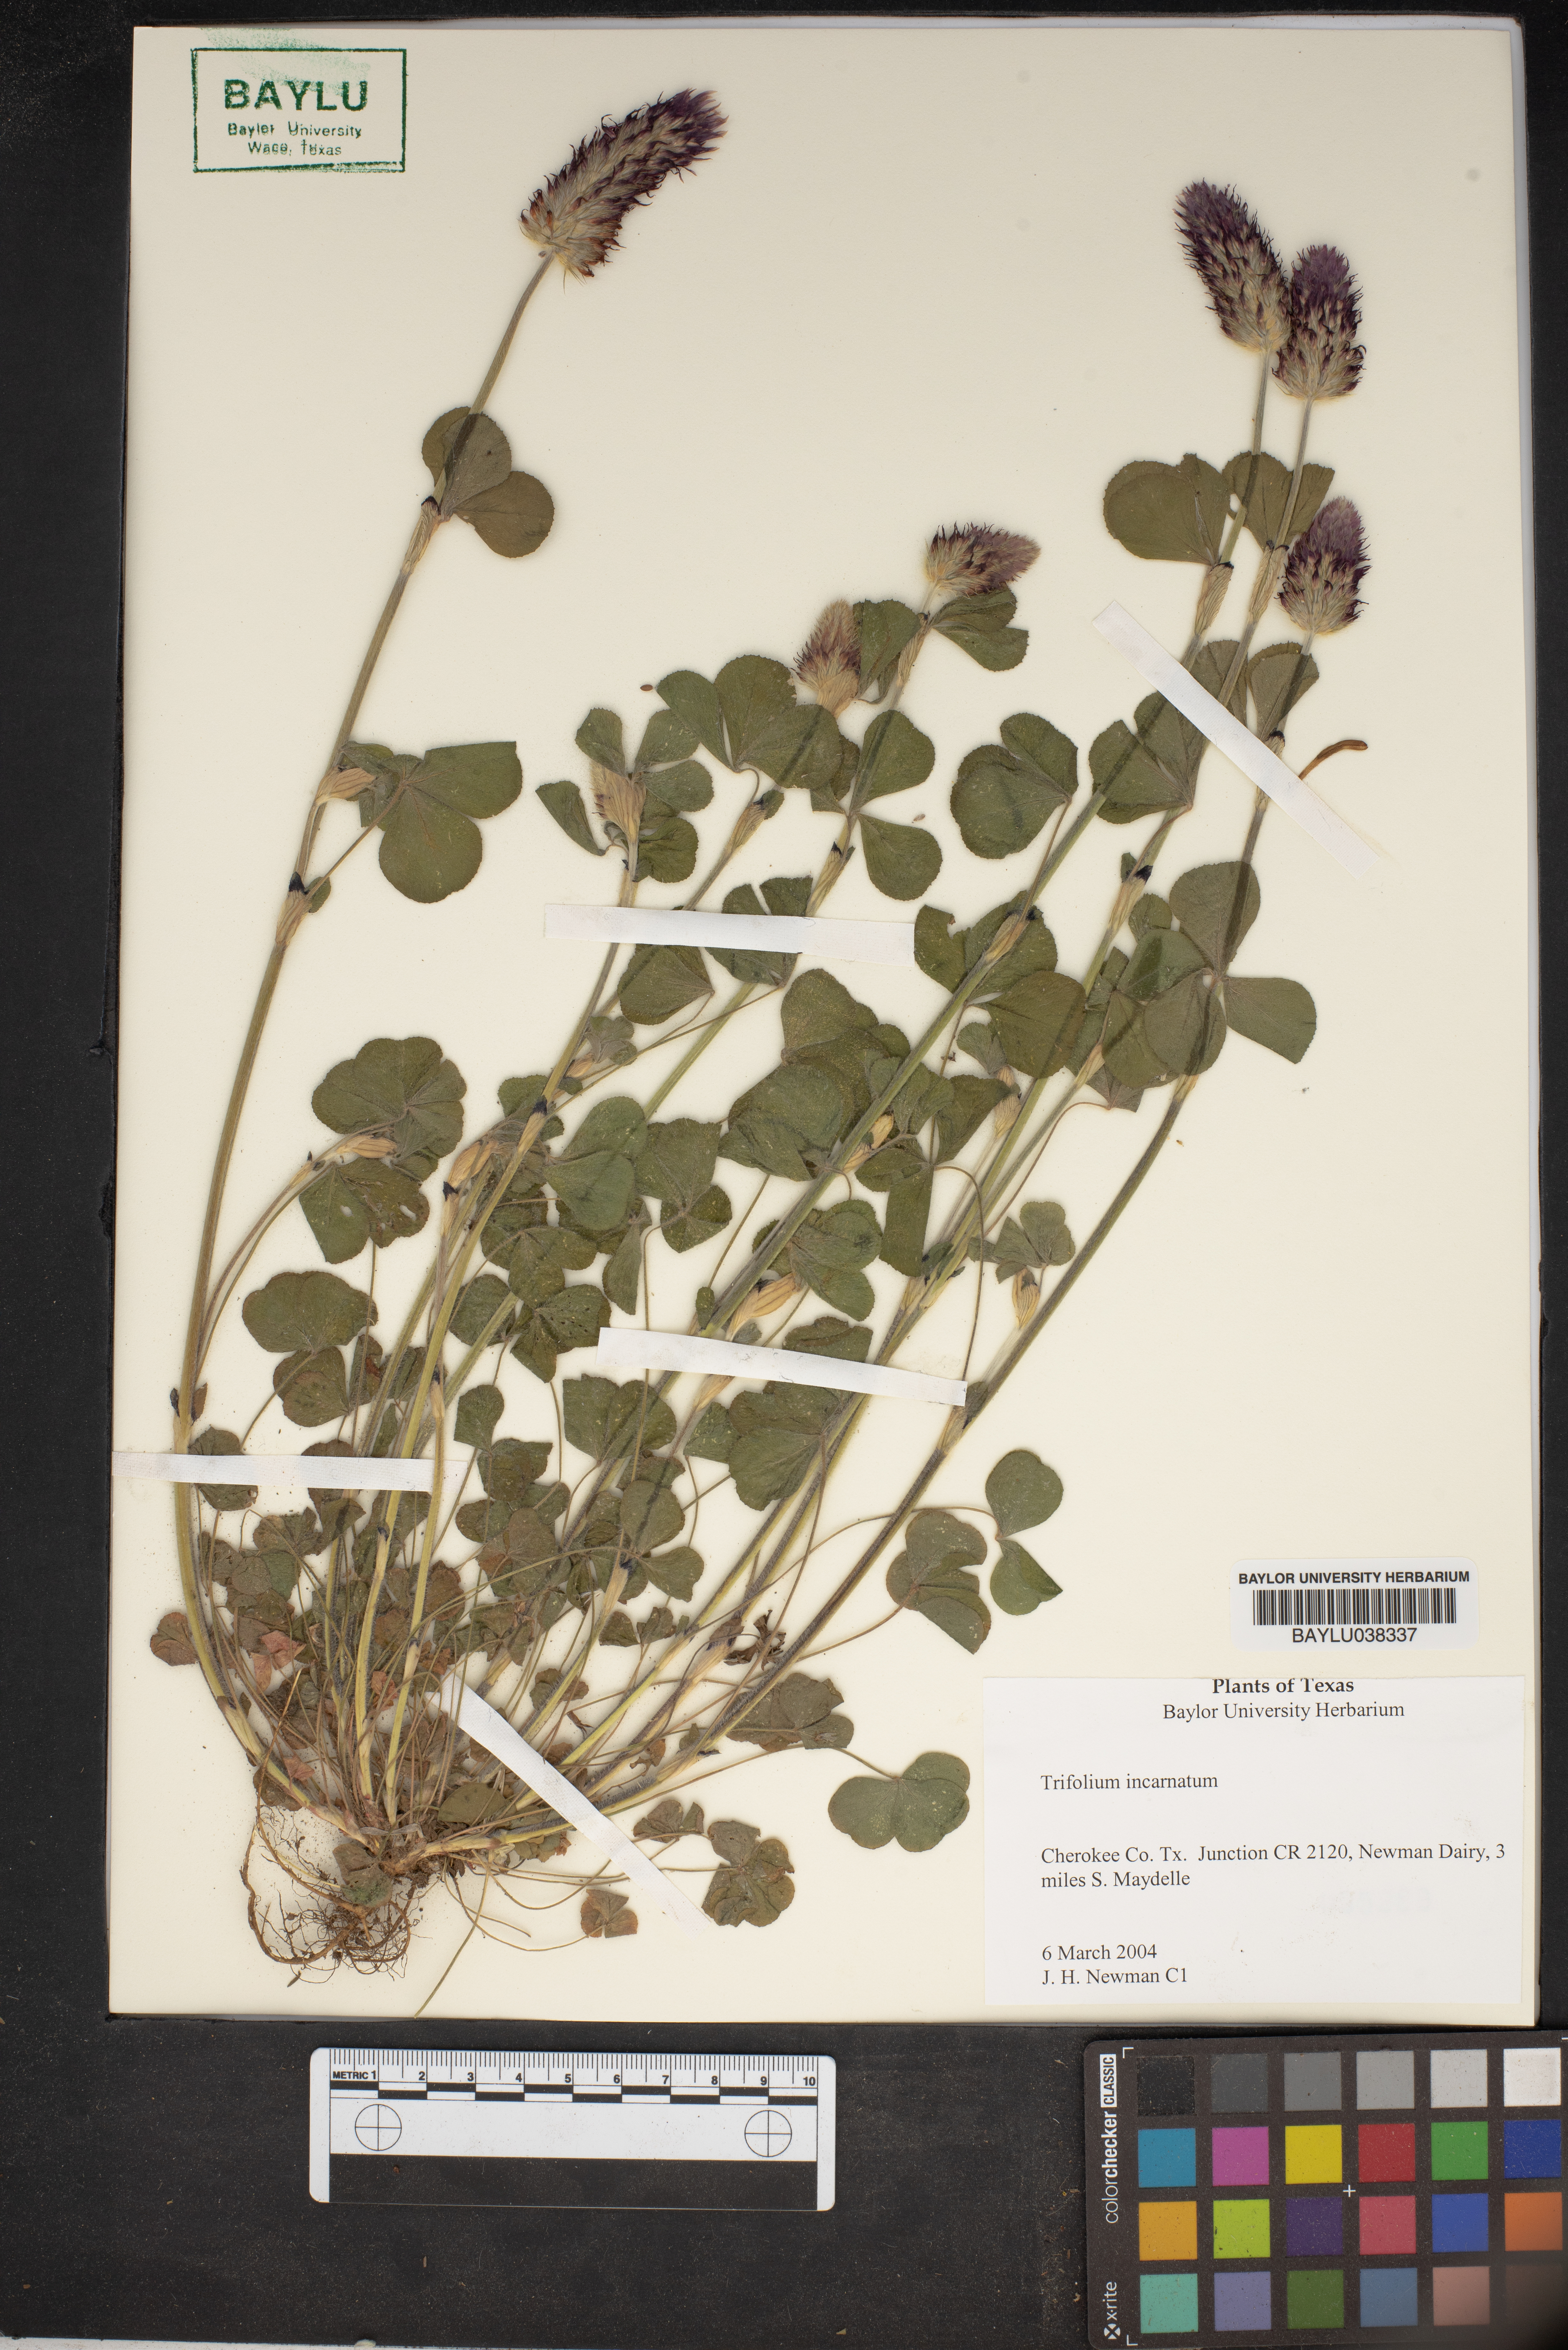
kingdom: Plantae
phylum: Tracheophyta
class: Magnoliopsida
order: Fabales
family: Fabaceae
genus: Trifolium
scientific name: Trifolium incarnatum
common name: Crimson clover
